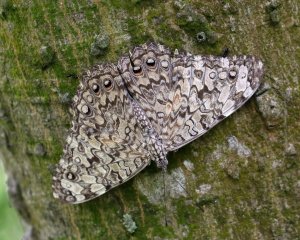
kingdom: Animalia
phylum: Arthropoda
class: Insecta
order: Lepidoptera
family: Nymphalidae
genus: Hamadryas
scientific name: Hamadryas februa
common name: Gray Cracker
